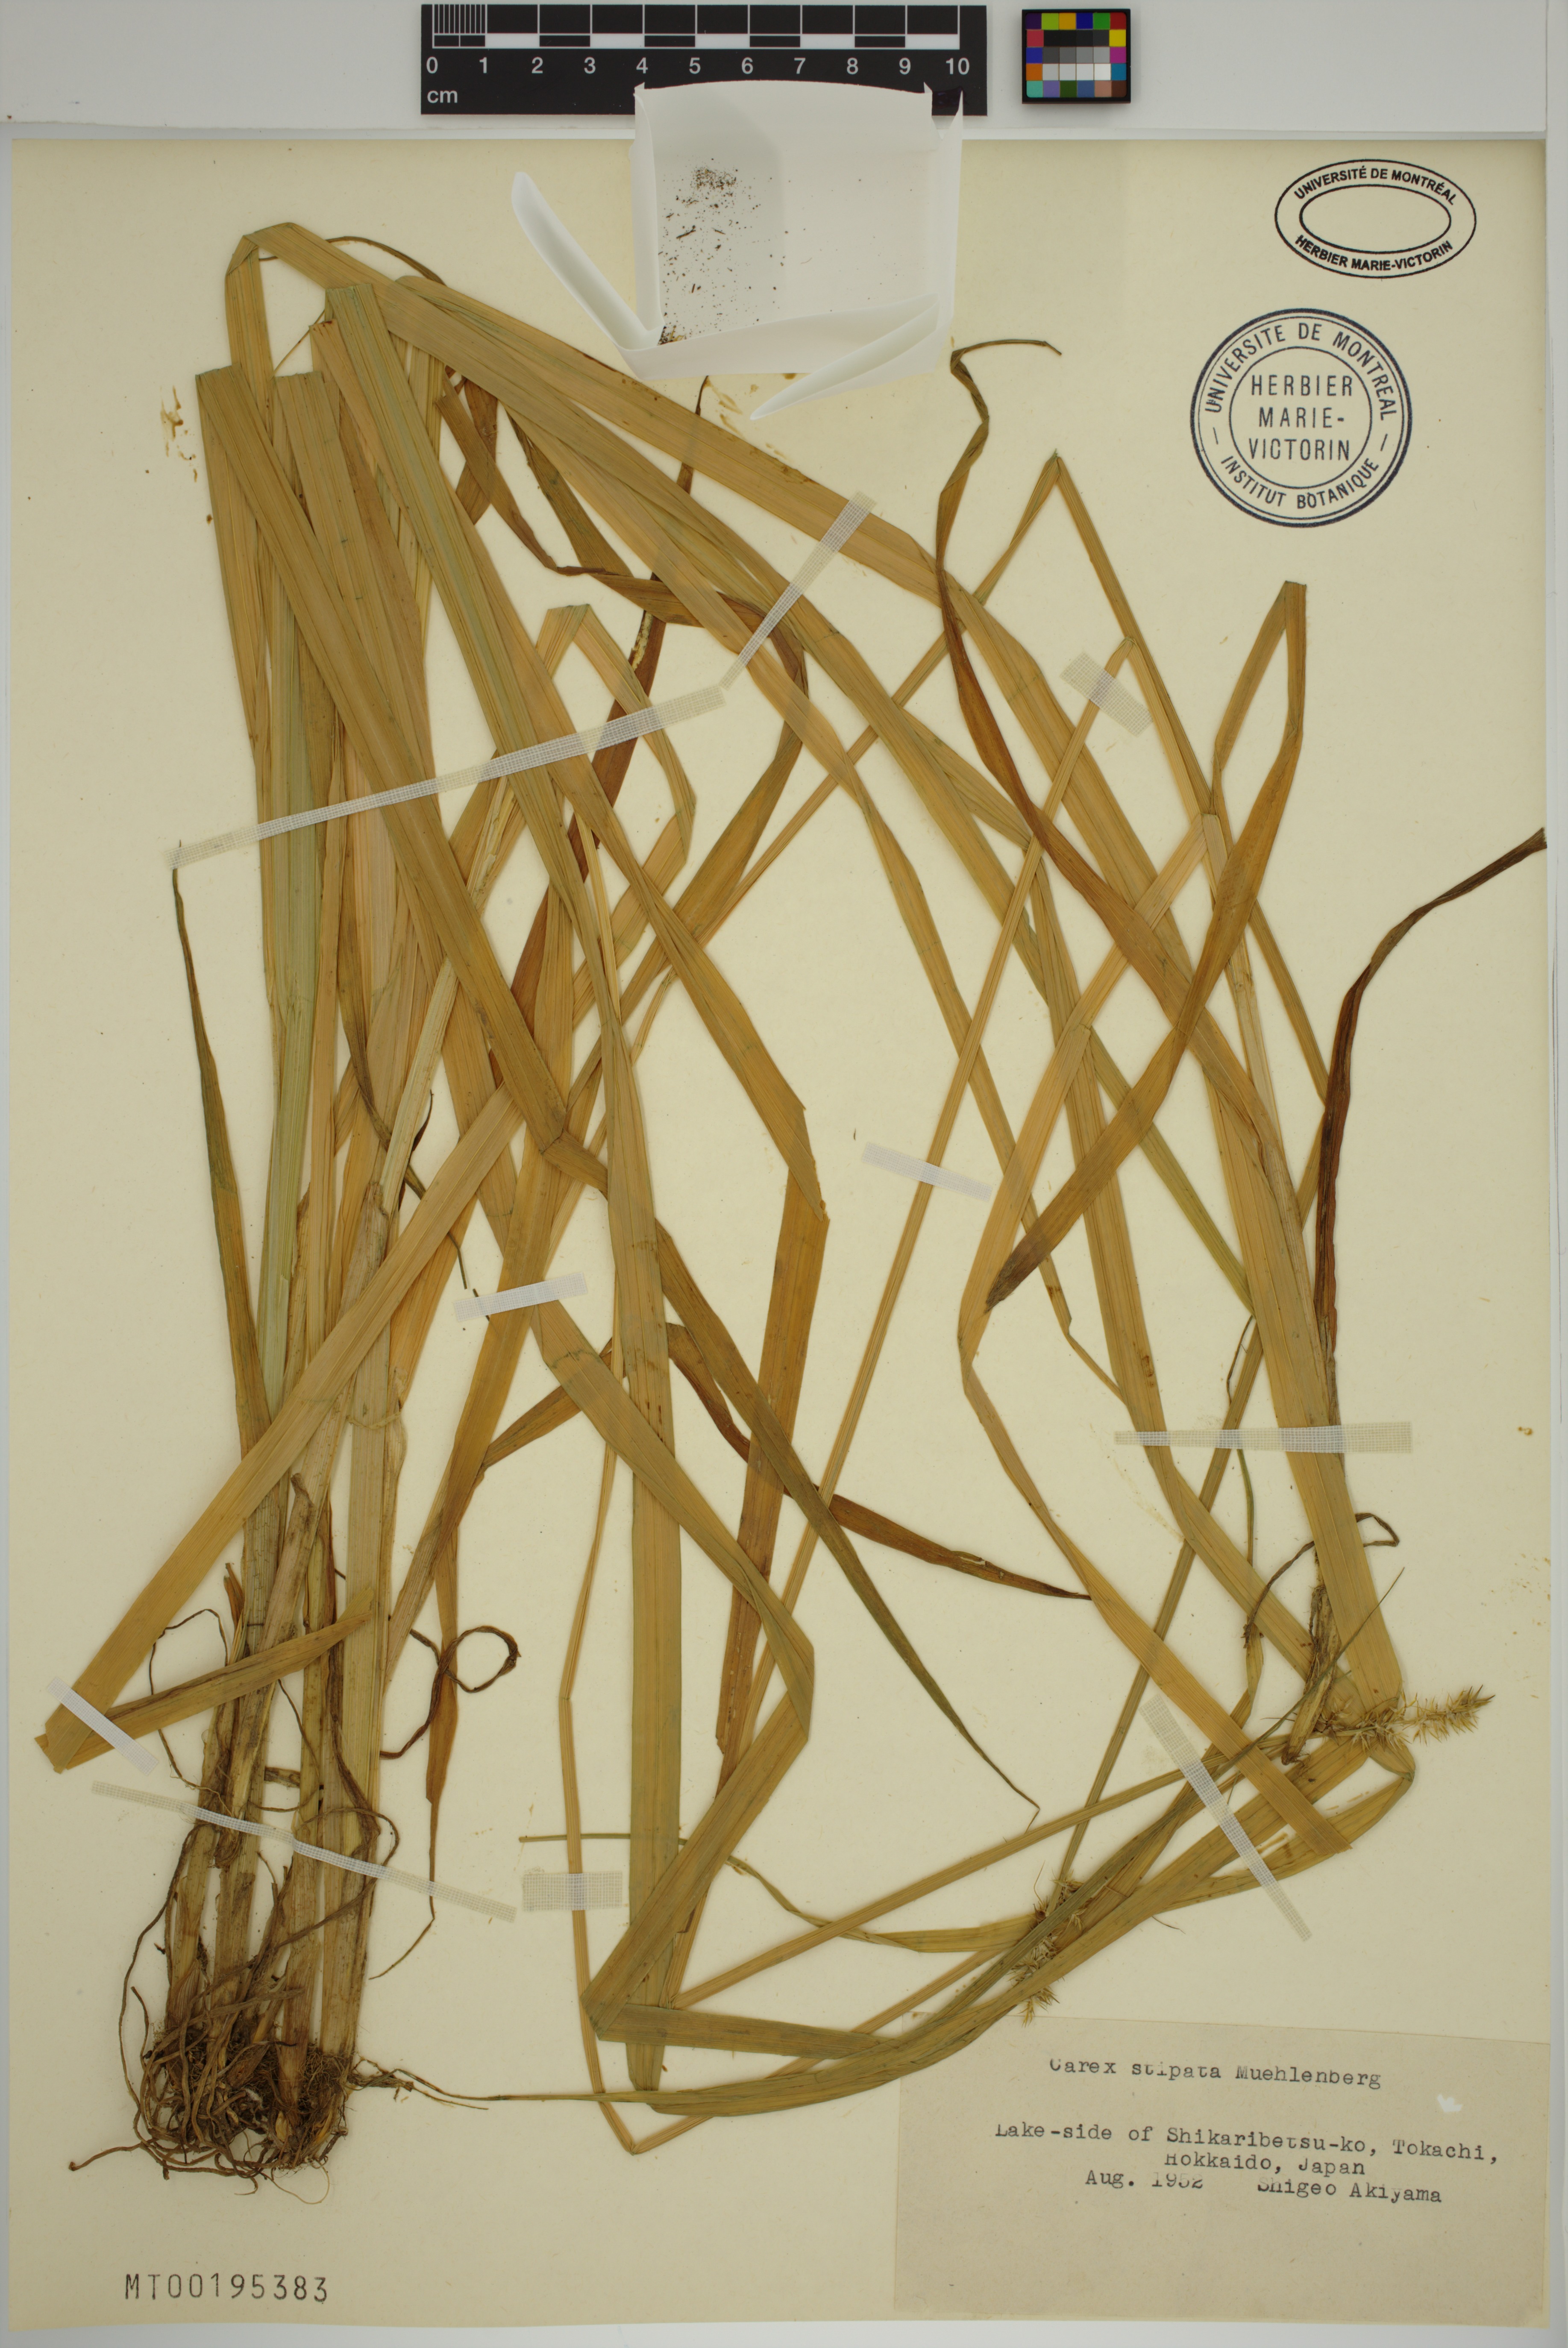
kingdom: Plantae
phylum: Tracheophyta
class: Liliopsida
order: Poales
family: Cyperaceae
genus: Carex
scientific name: Carex stipata
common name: Awl-fruited sedge
